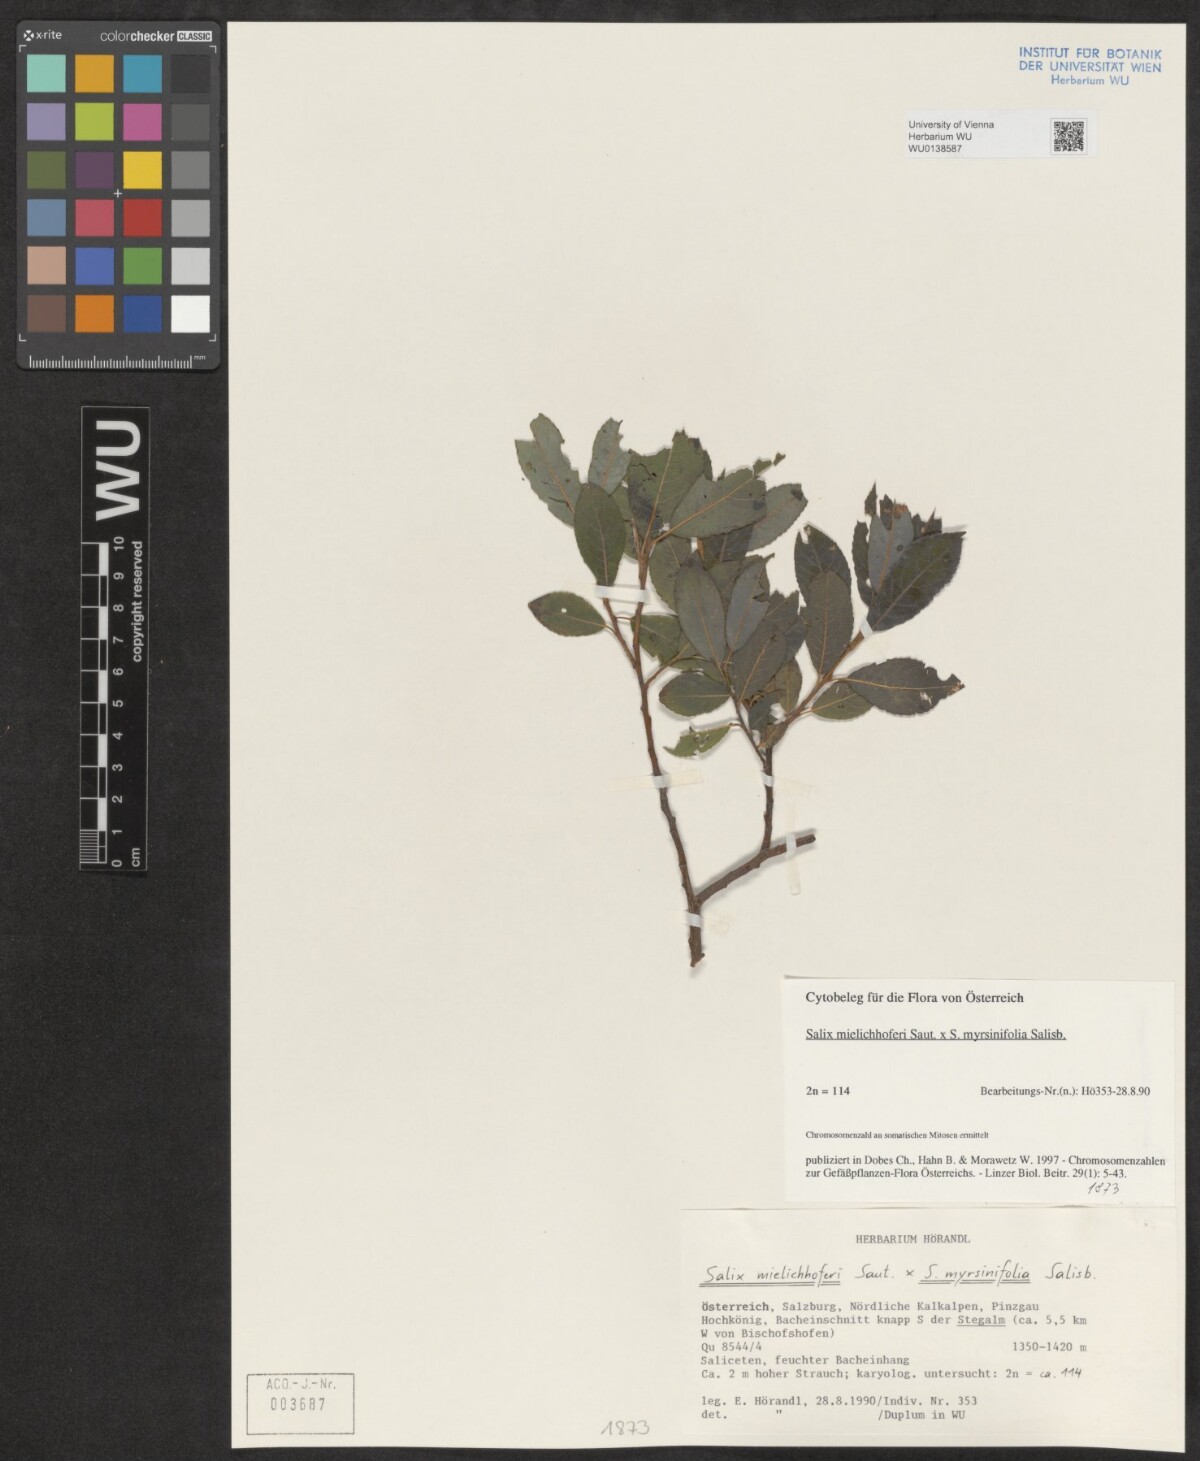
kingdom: Plantae
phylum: Tracheophyta
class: Magnoliopsida
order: Malpighiales
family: Salicaceae
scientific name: Salicaceae
